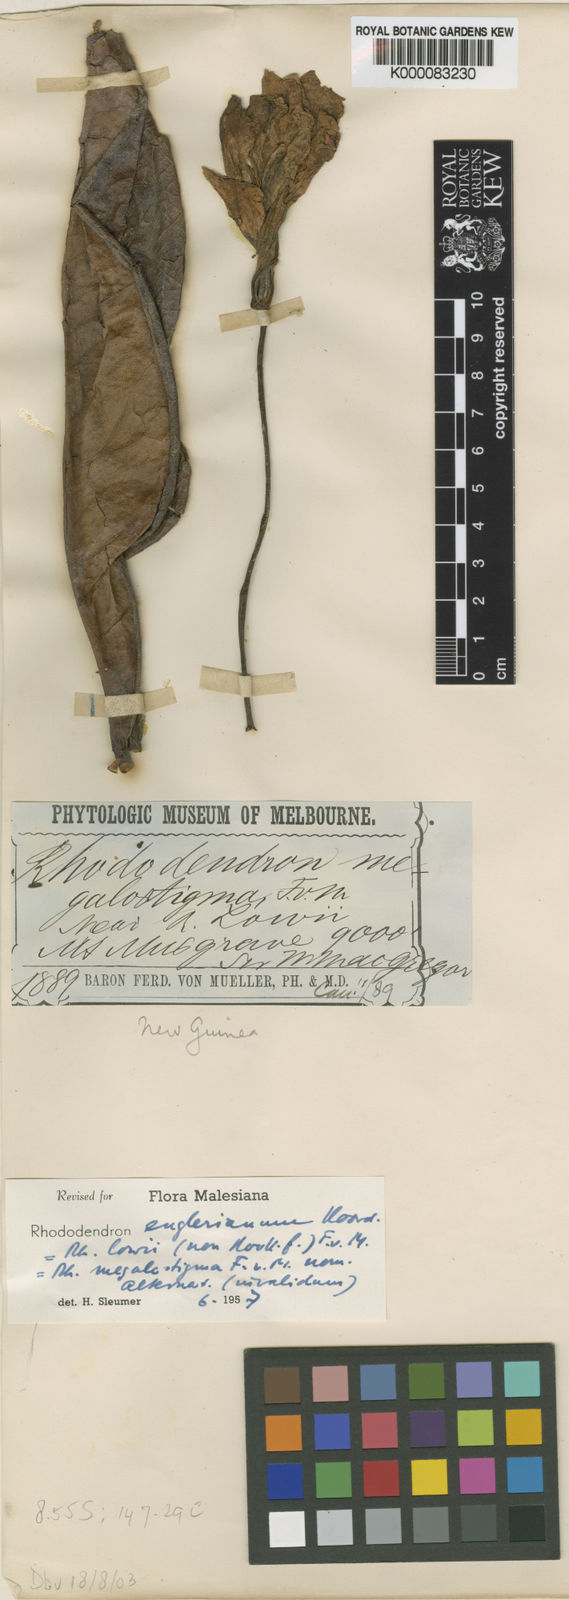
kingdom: Plantae
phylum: Tracheophyta
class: Magnoliopsida
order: Ericales
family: Ericaceae
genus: Rhododendron
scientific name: Rhododendron englerianum
